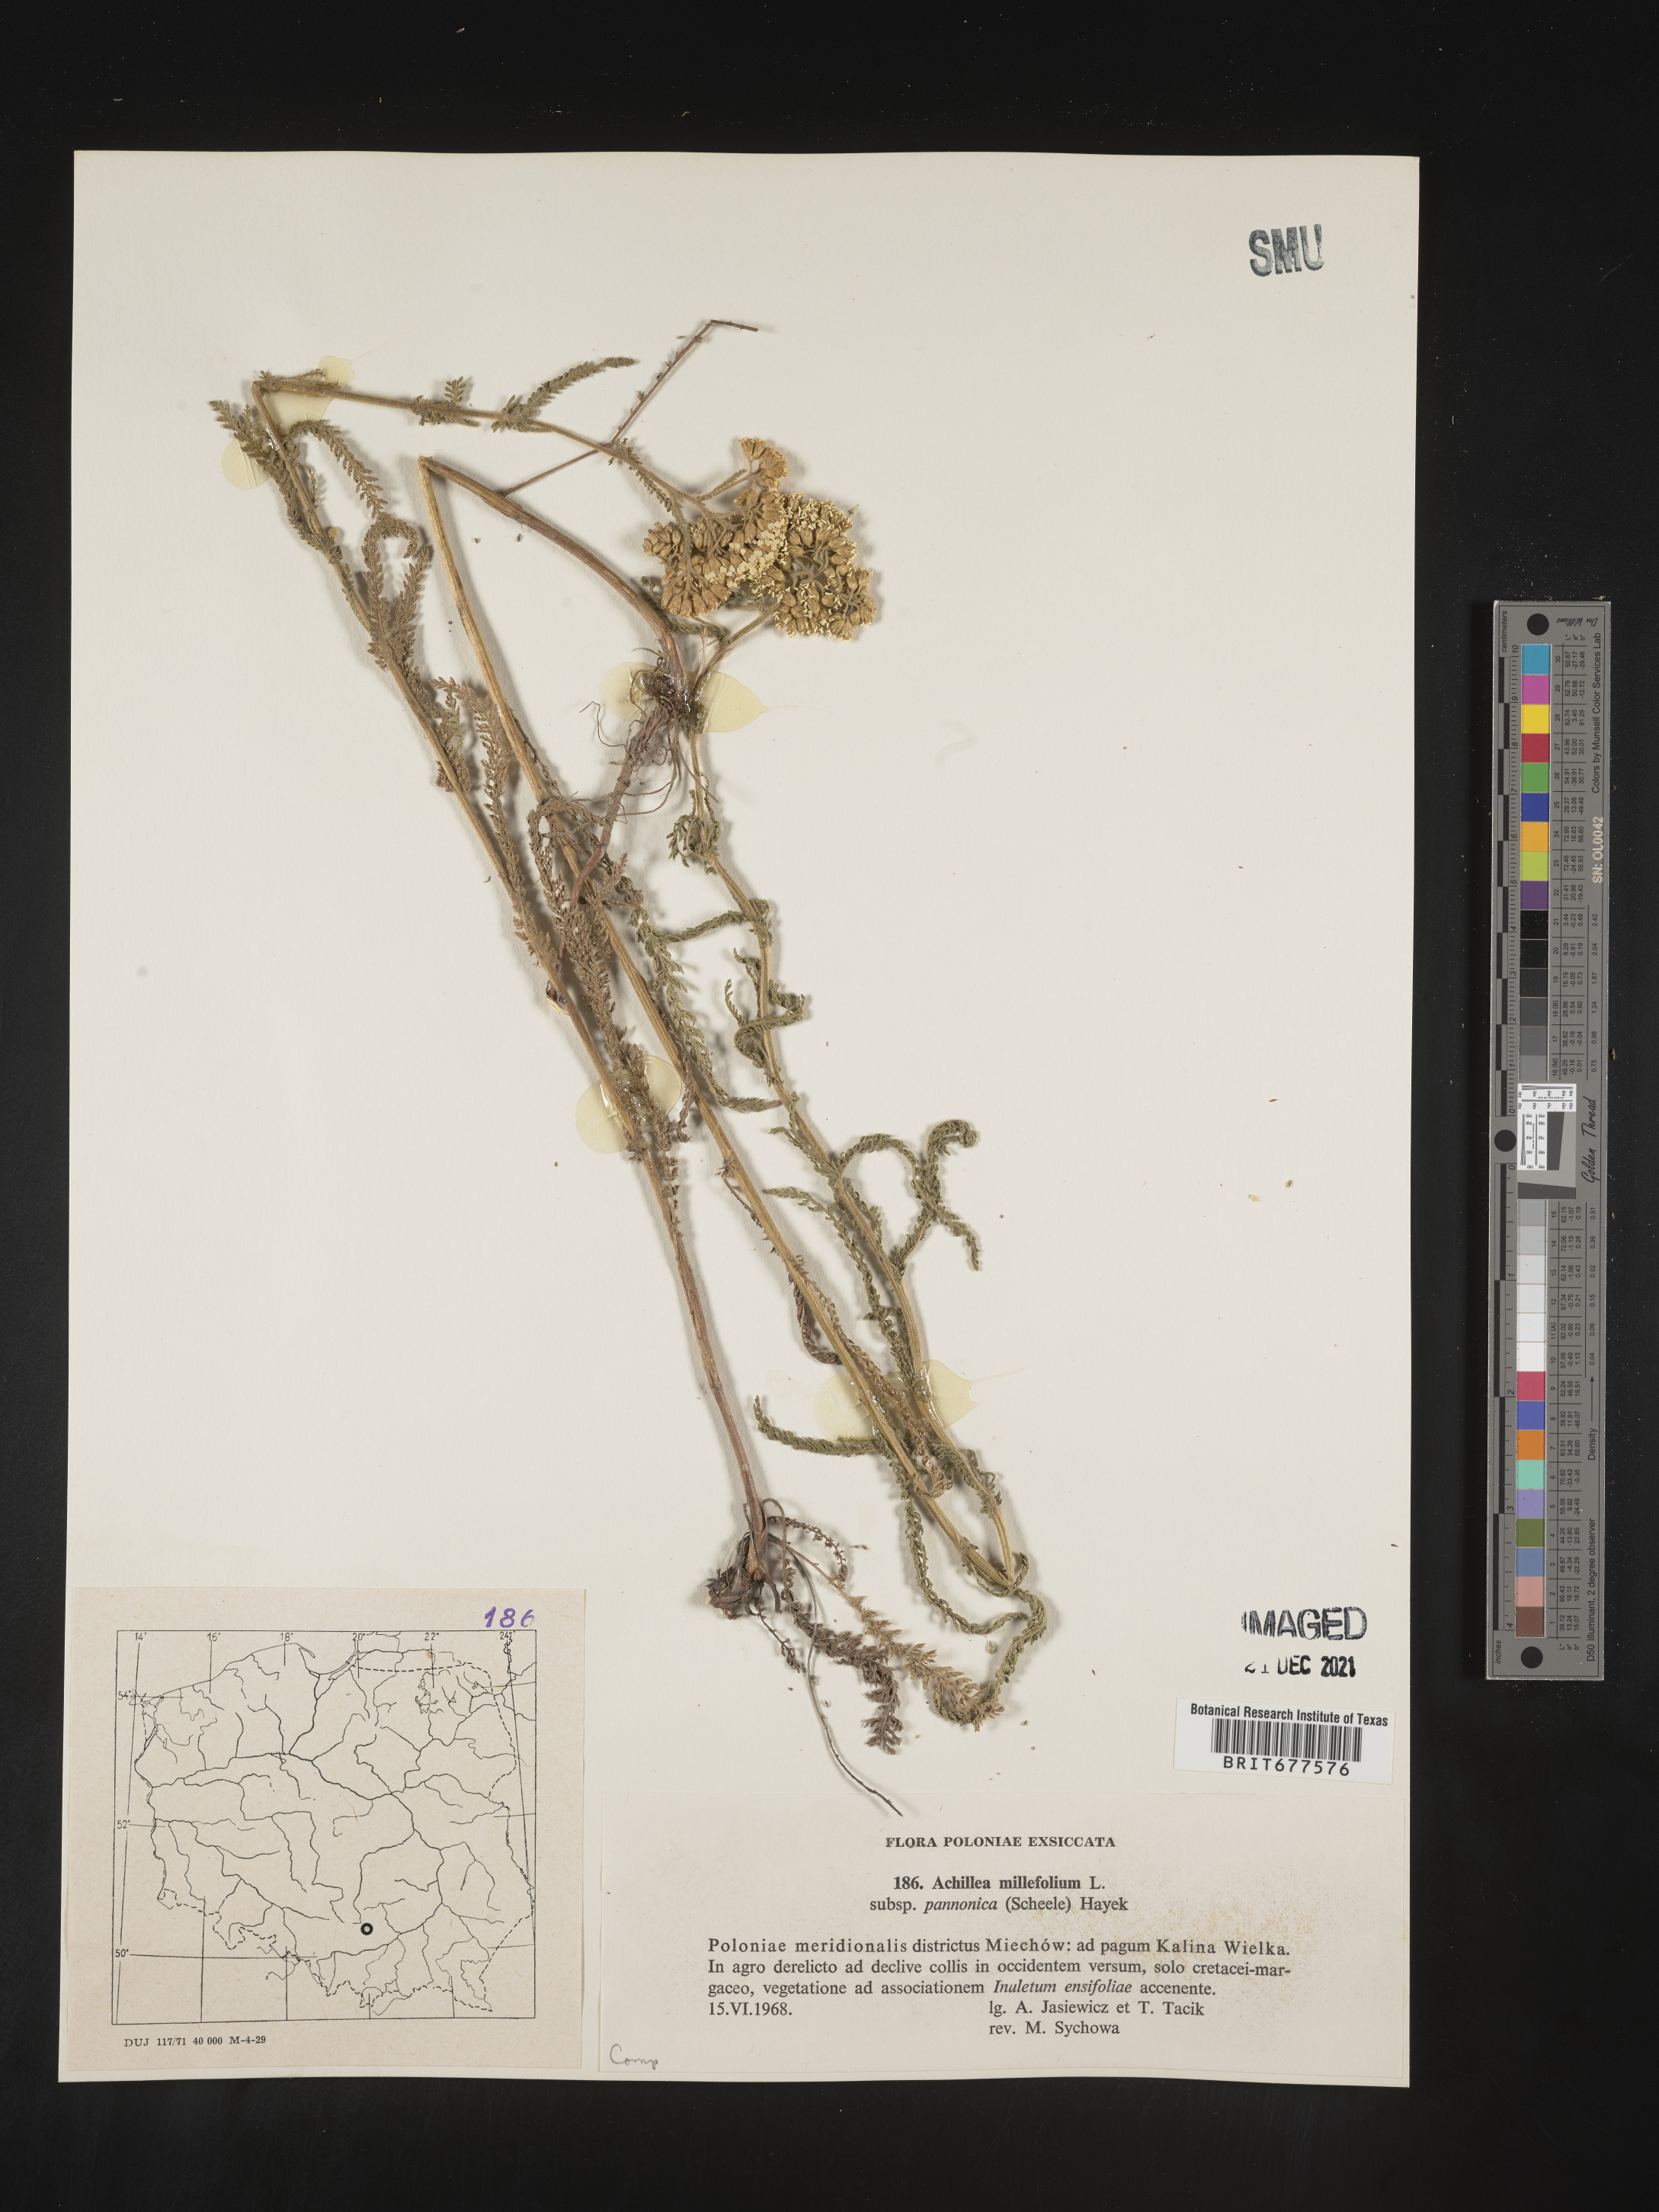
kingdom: Plantae
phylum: Tracheophyta
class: Magnoliopsida
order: Asterales
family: Asteraceae
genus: Achillea
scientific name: Achillea millefolium
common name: Yarrow
